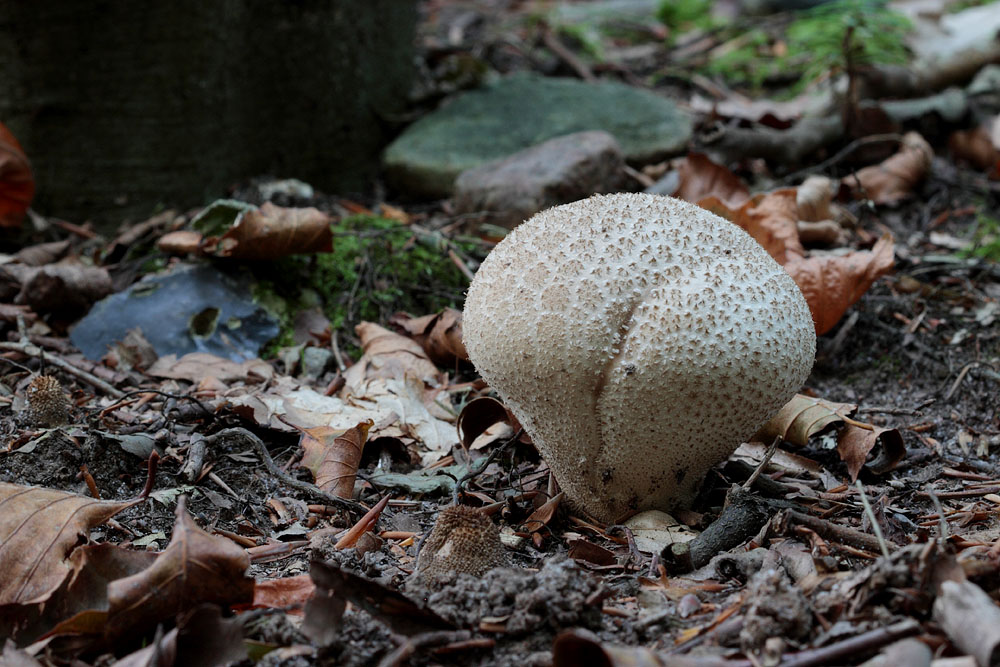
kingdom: Fungi
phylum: Basidiomycota
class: Agaricomycetes
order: Agaricales
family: Lycoperdaceae
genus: Lycoperdon
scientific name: Lycoperdon excipuliforme
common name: højstokket støvbold
